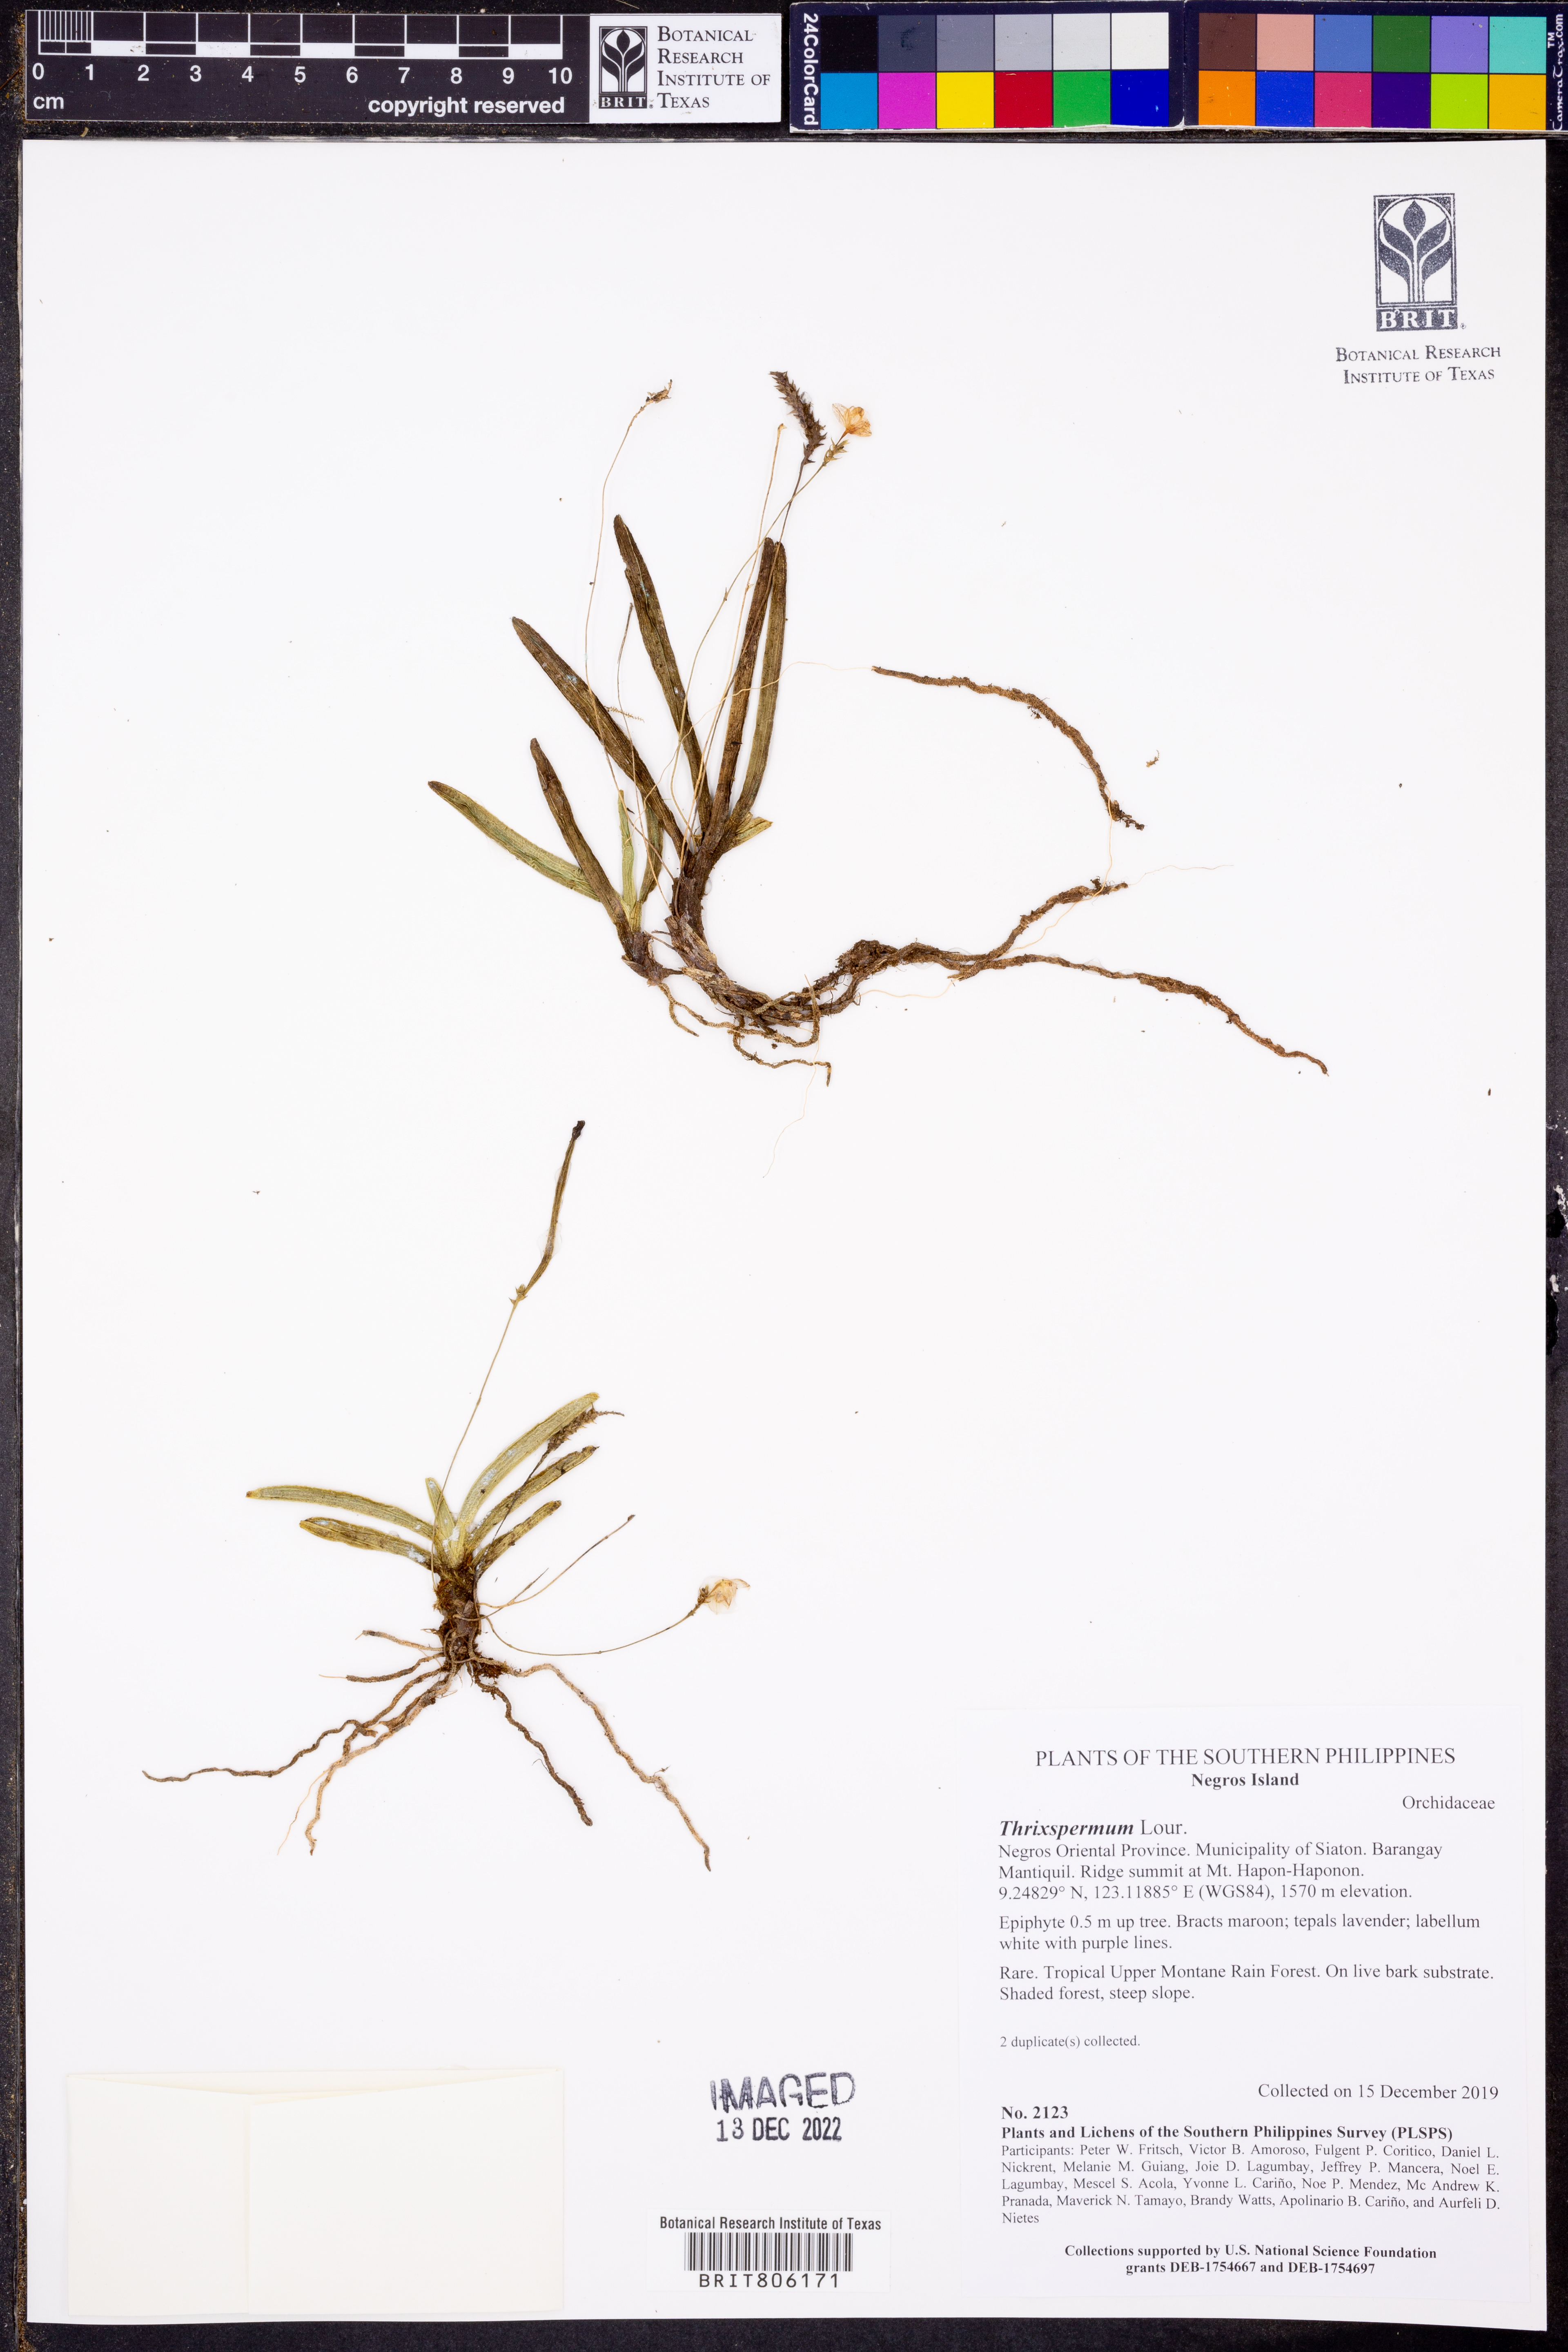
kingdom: Plantae
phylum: Tracheophyta
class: Liliopsida
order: Asparagales
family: Orchidaceae
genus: Thrixspermum
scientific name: Thrixspermum
